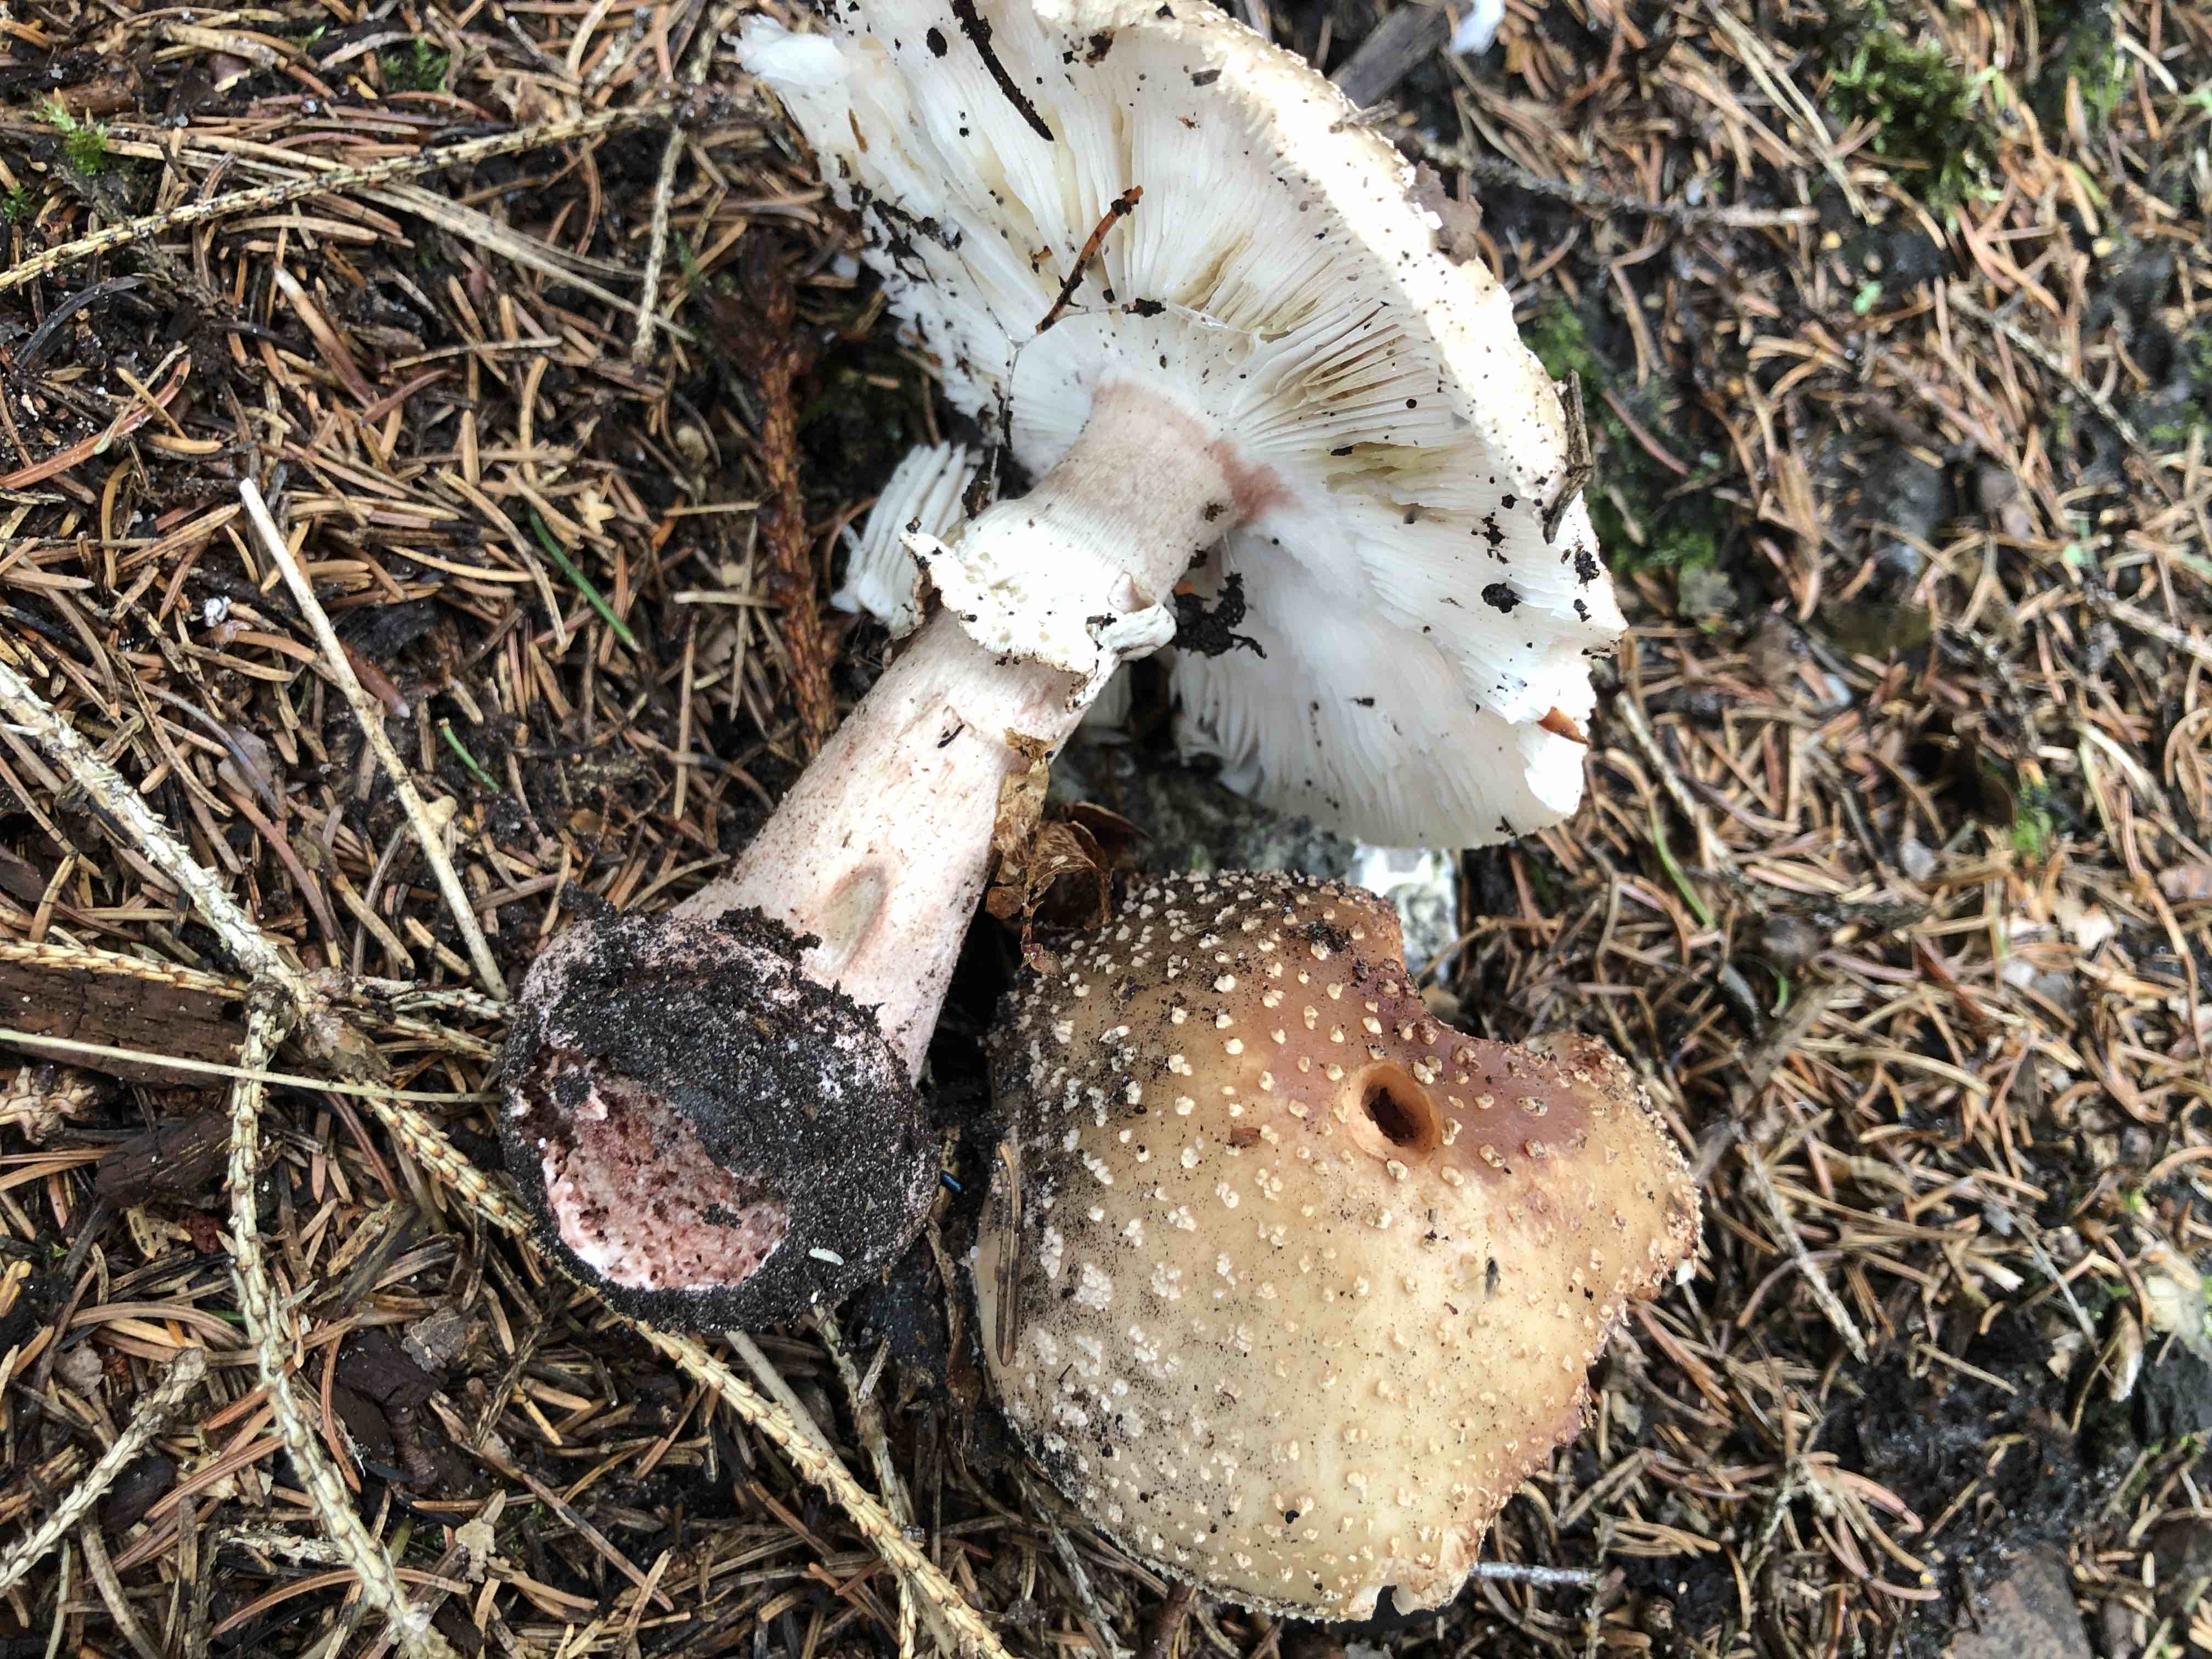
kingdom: Fungi
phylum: Basidiomycota
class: Agaricomycetes
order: Agaricales
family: Amanitaceae
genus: Amanita
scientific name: Amanita rubescens
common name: rødmende fluesvamp
